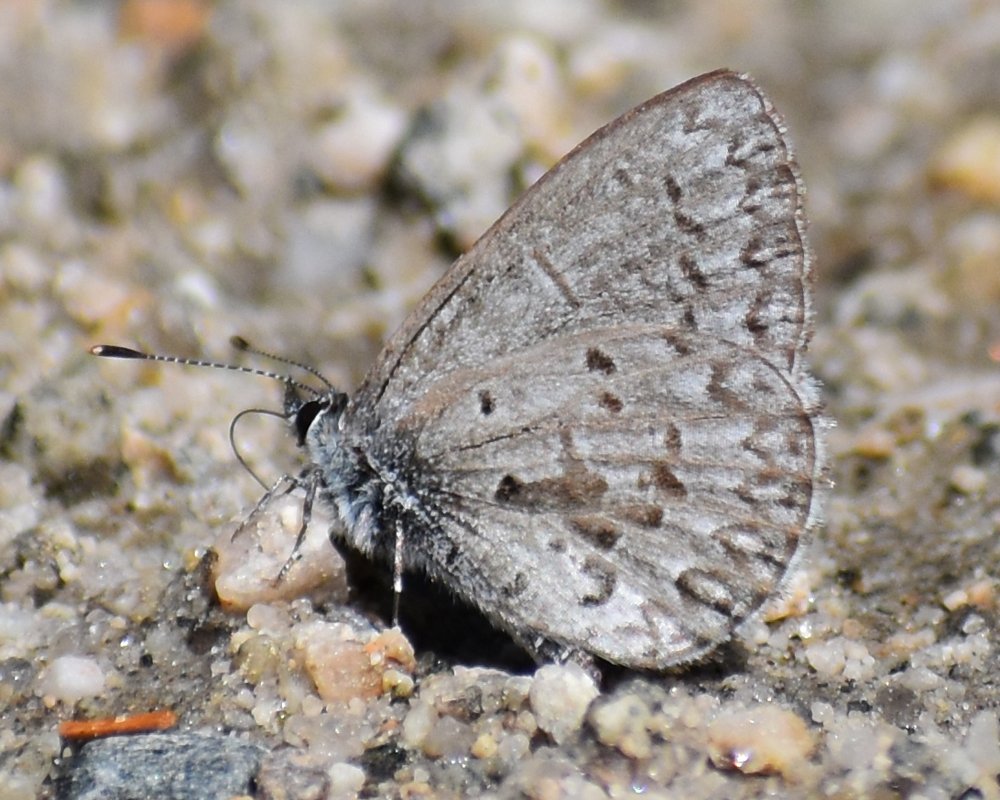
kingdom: Animalia
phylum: Arthropoda
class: Insecta
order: Lepidoptera
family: Lycaenidae
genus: Celastrina
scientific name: Celastrina ladon
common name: Echo Azure
